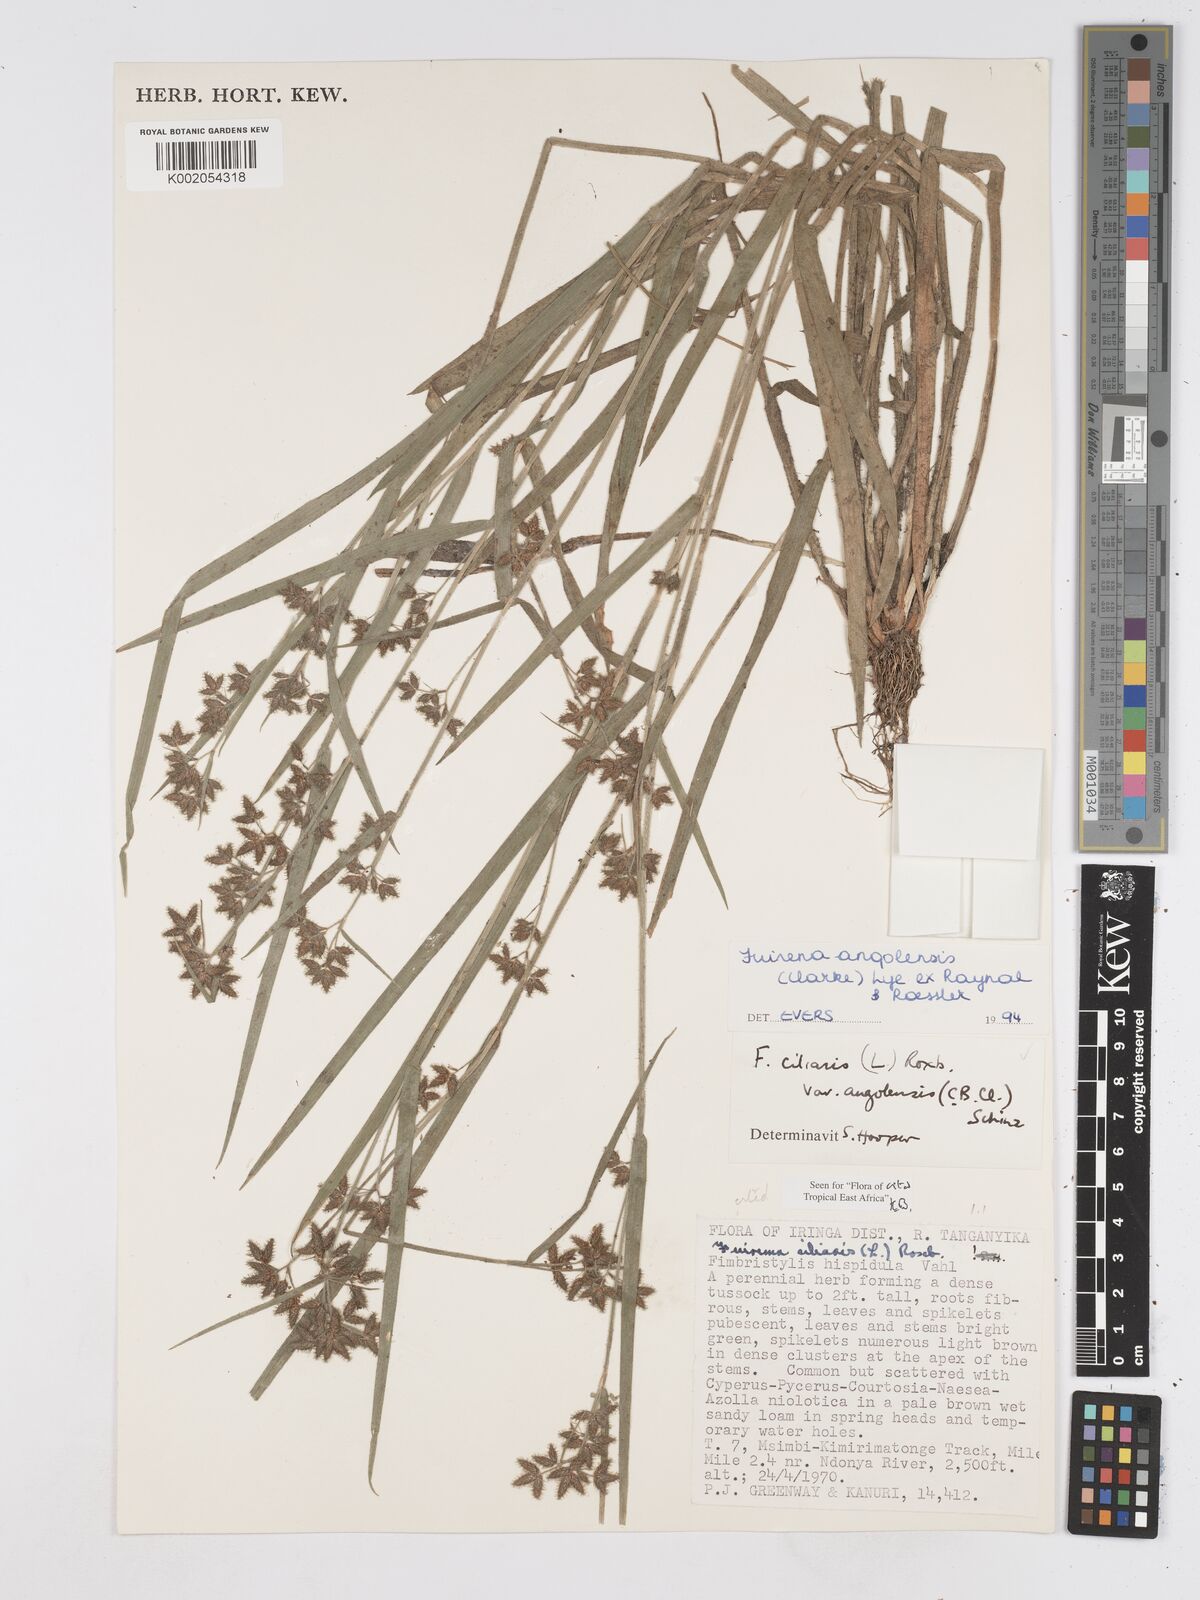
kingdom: Plantae
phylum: Tracheophyta
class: Liliopsida
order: Poales
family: Cyperaceae
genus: Fuirena
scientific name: Fuirena angolensis
